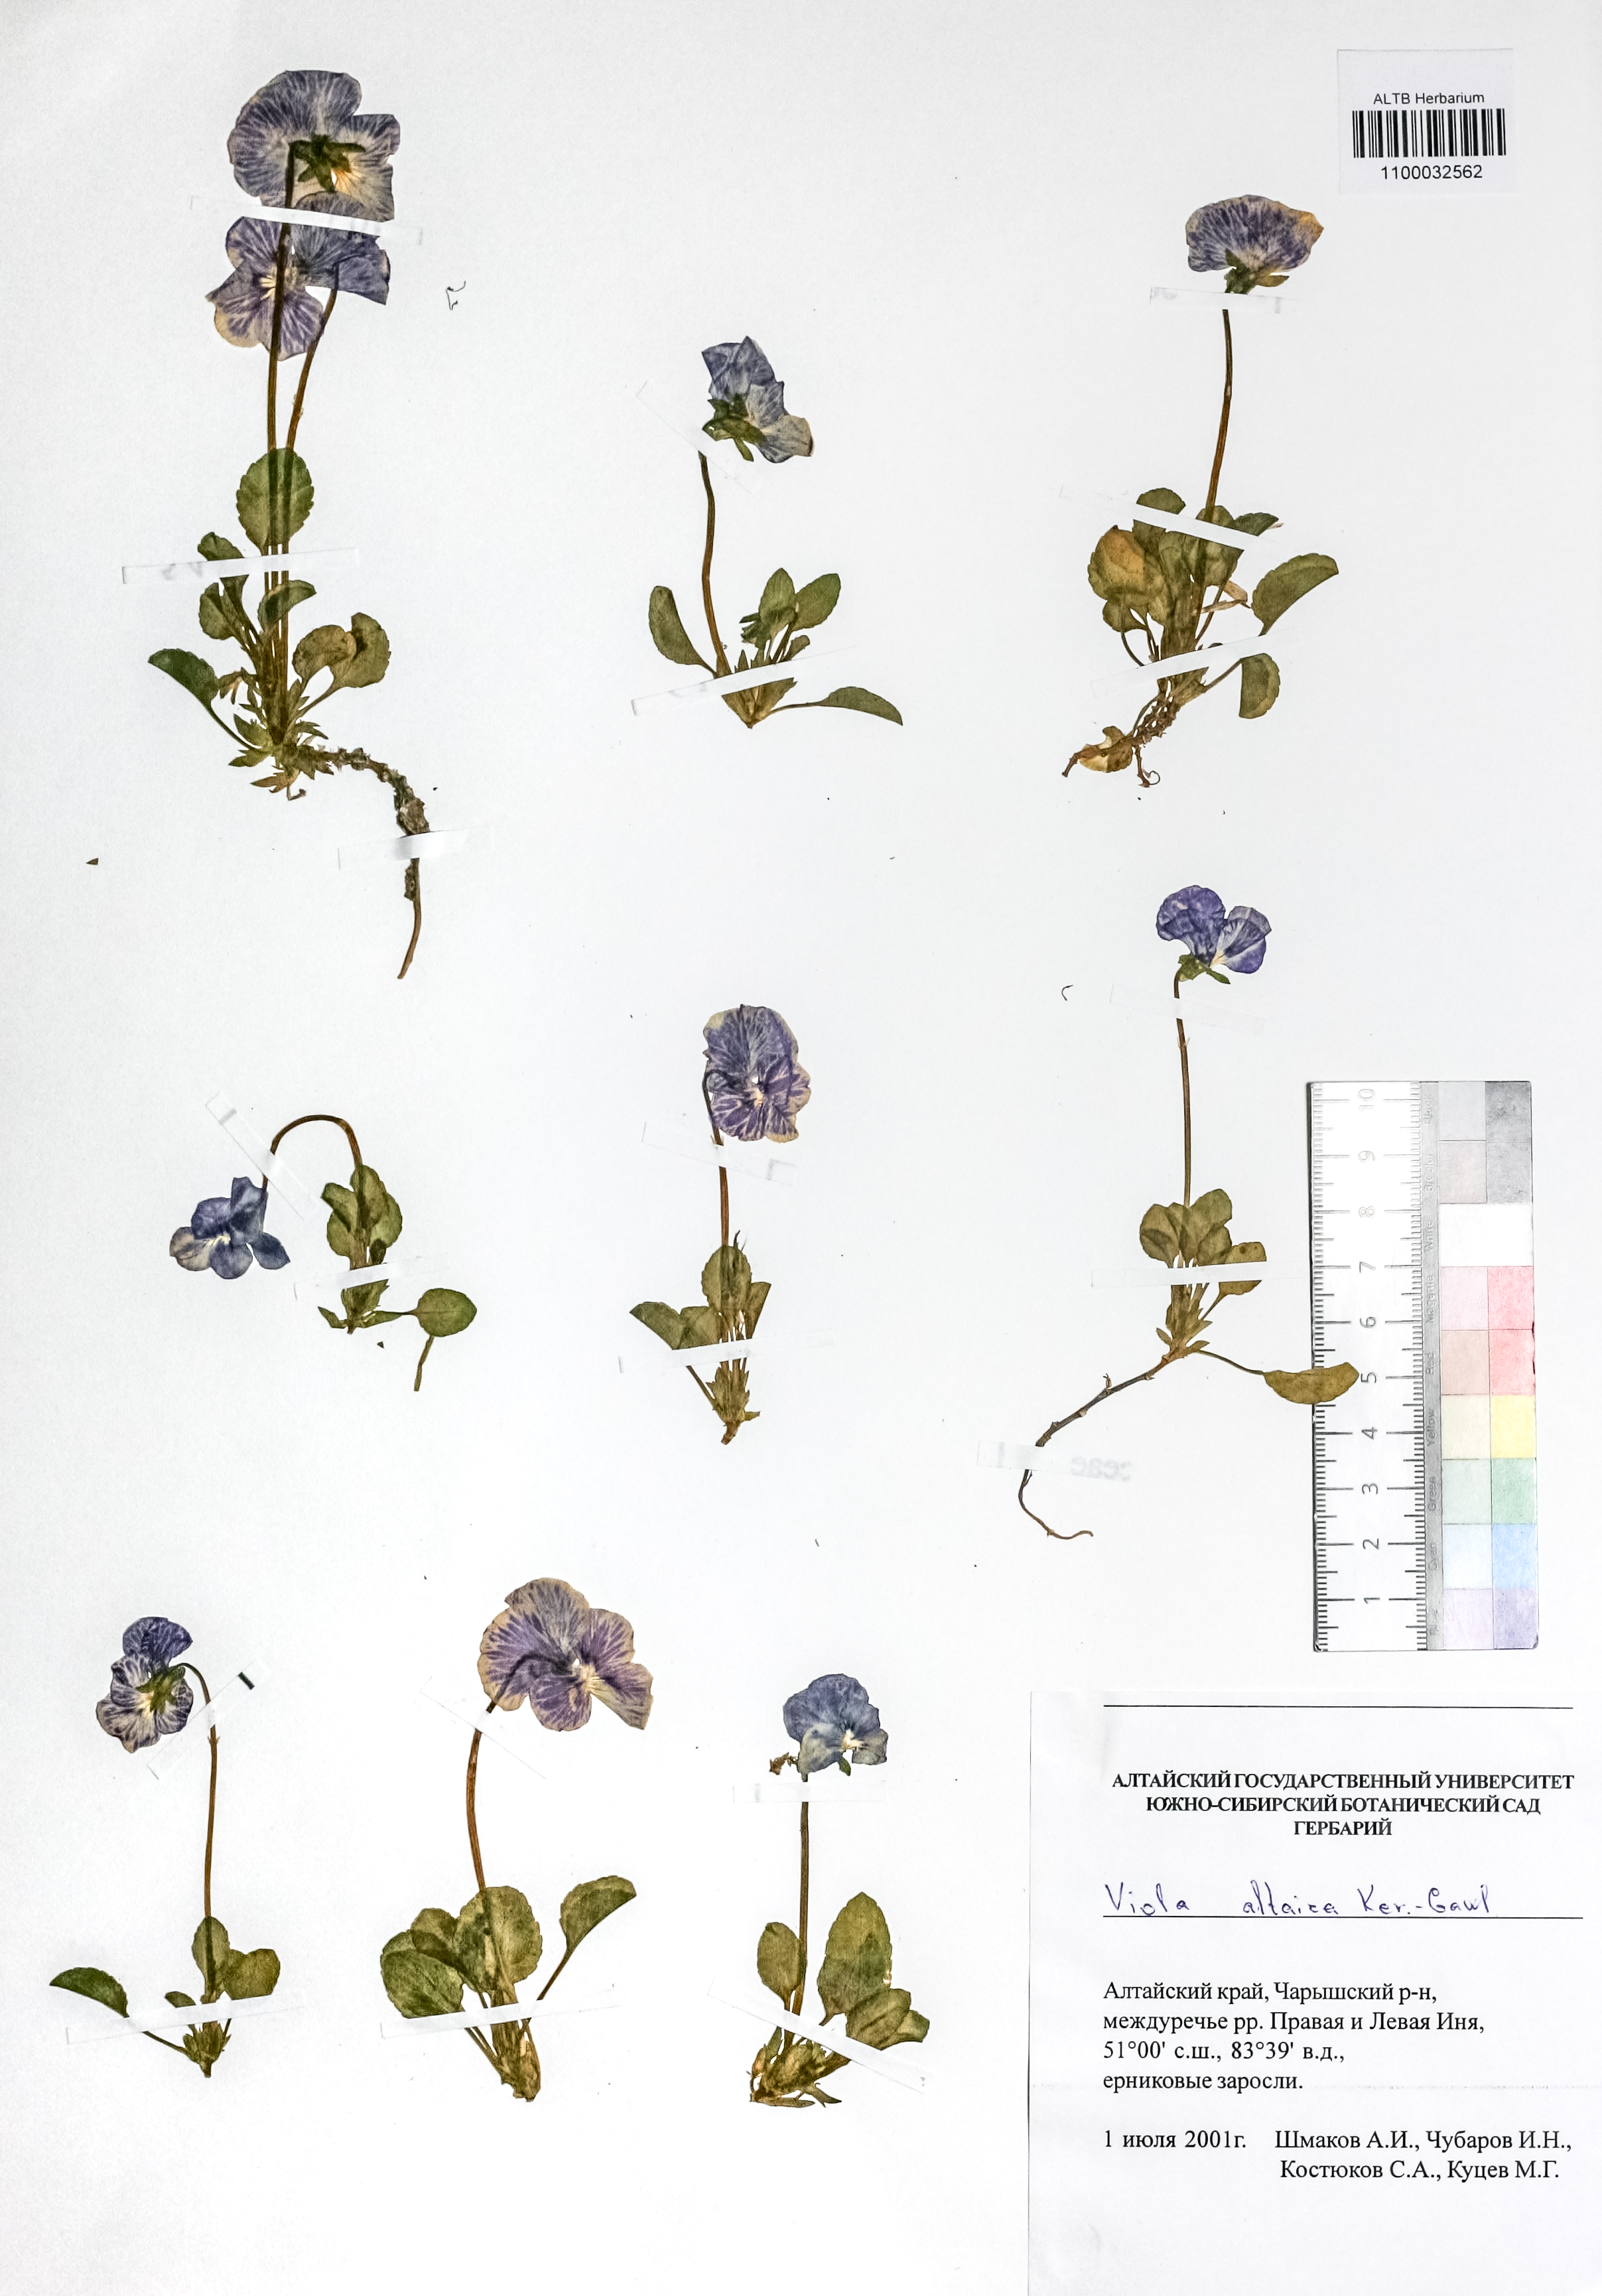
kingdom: Plantae
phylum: Tracheophyta
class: Magnoliopsida
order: Malpighiales
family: Violaceae
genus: Viola
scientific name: Viola altaica
